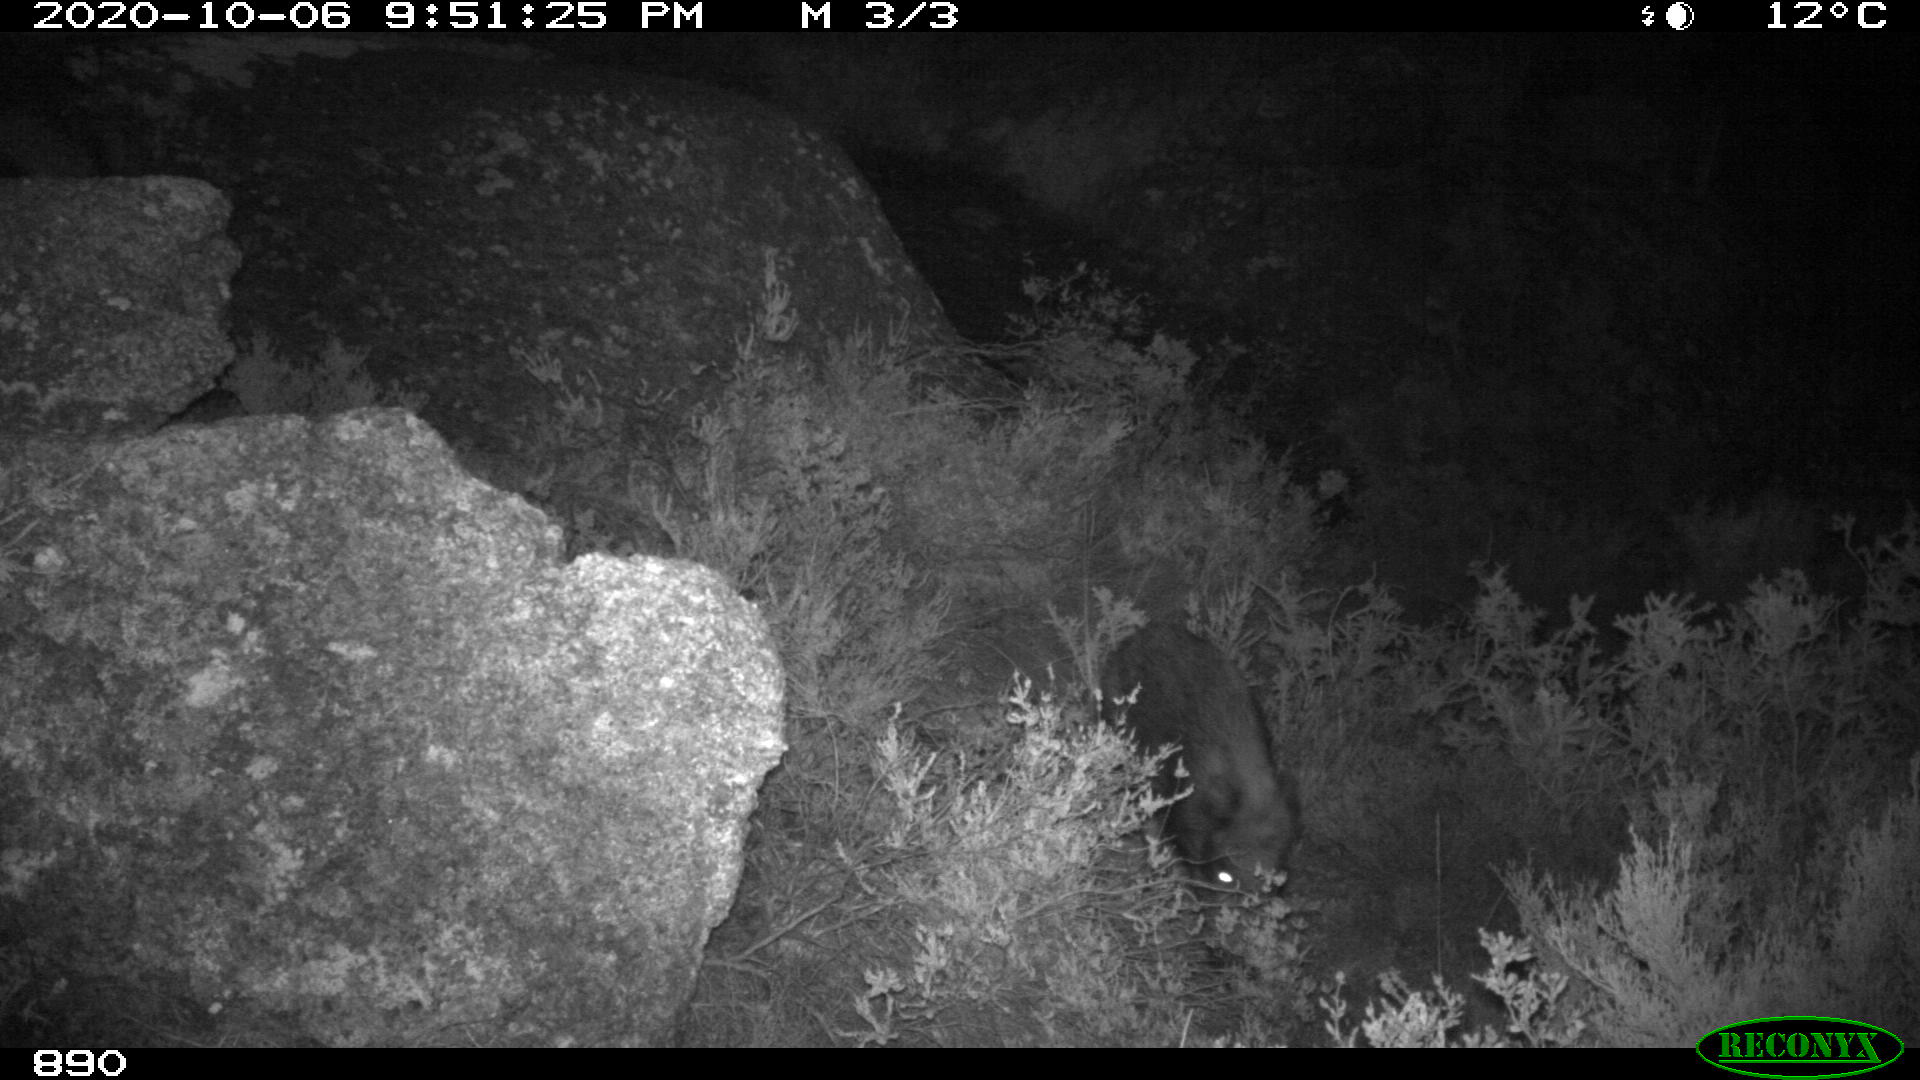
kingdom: Animalia
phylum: Chordata
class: Mammalia
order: Artiodactyla
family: Suidae
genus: Sus
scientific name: Sus scrofa
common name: Wild boar
